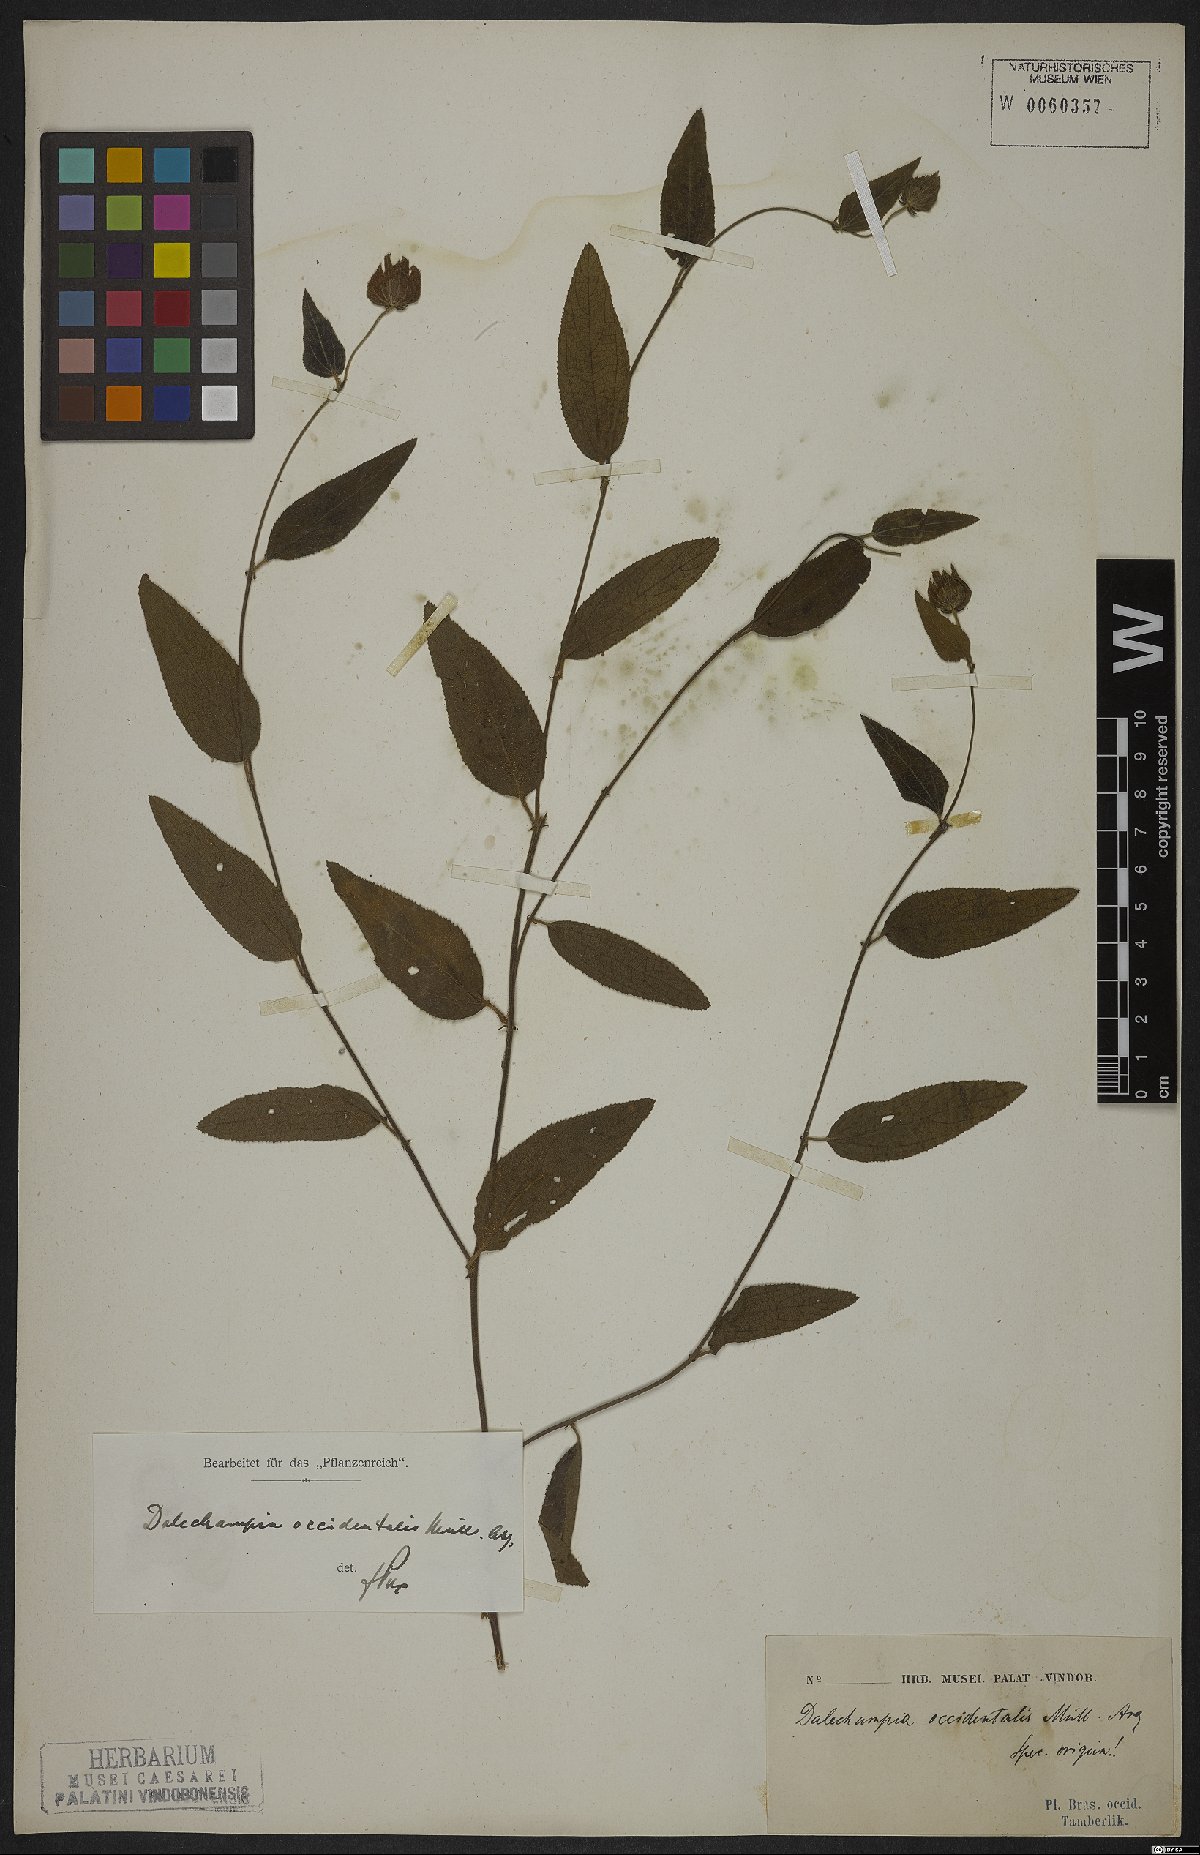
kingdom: Plantae
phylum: Tracheophyta
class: Magnoliopsida
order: Malpighiales
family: Euphorbiaceae
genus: Dalechampia
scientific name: Dalechampia occidentalis
